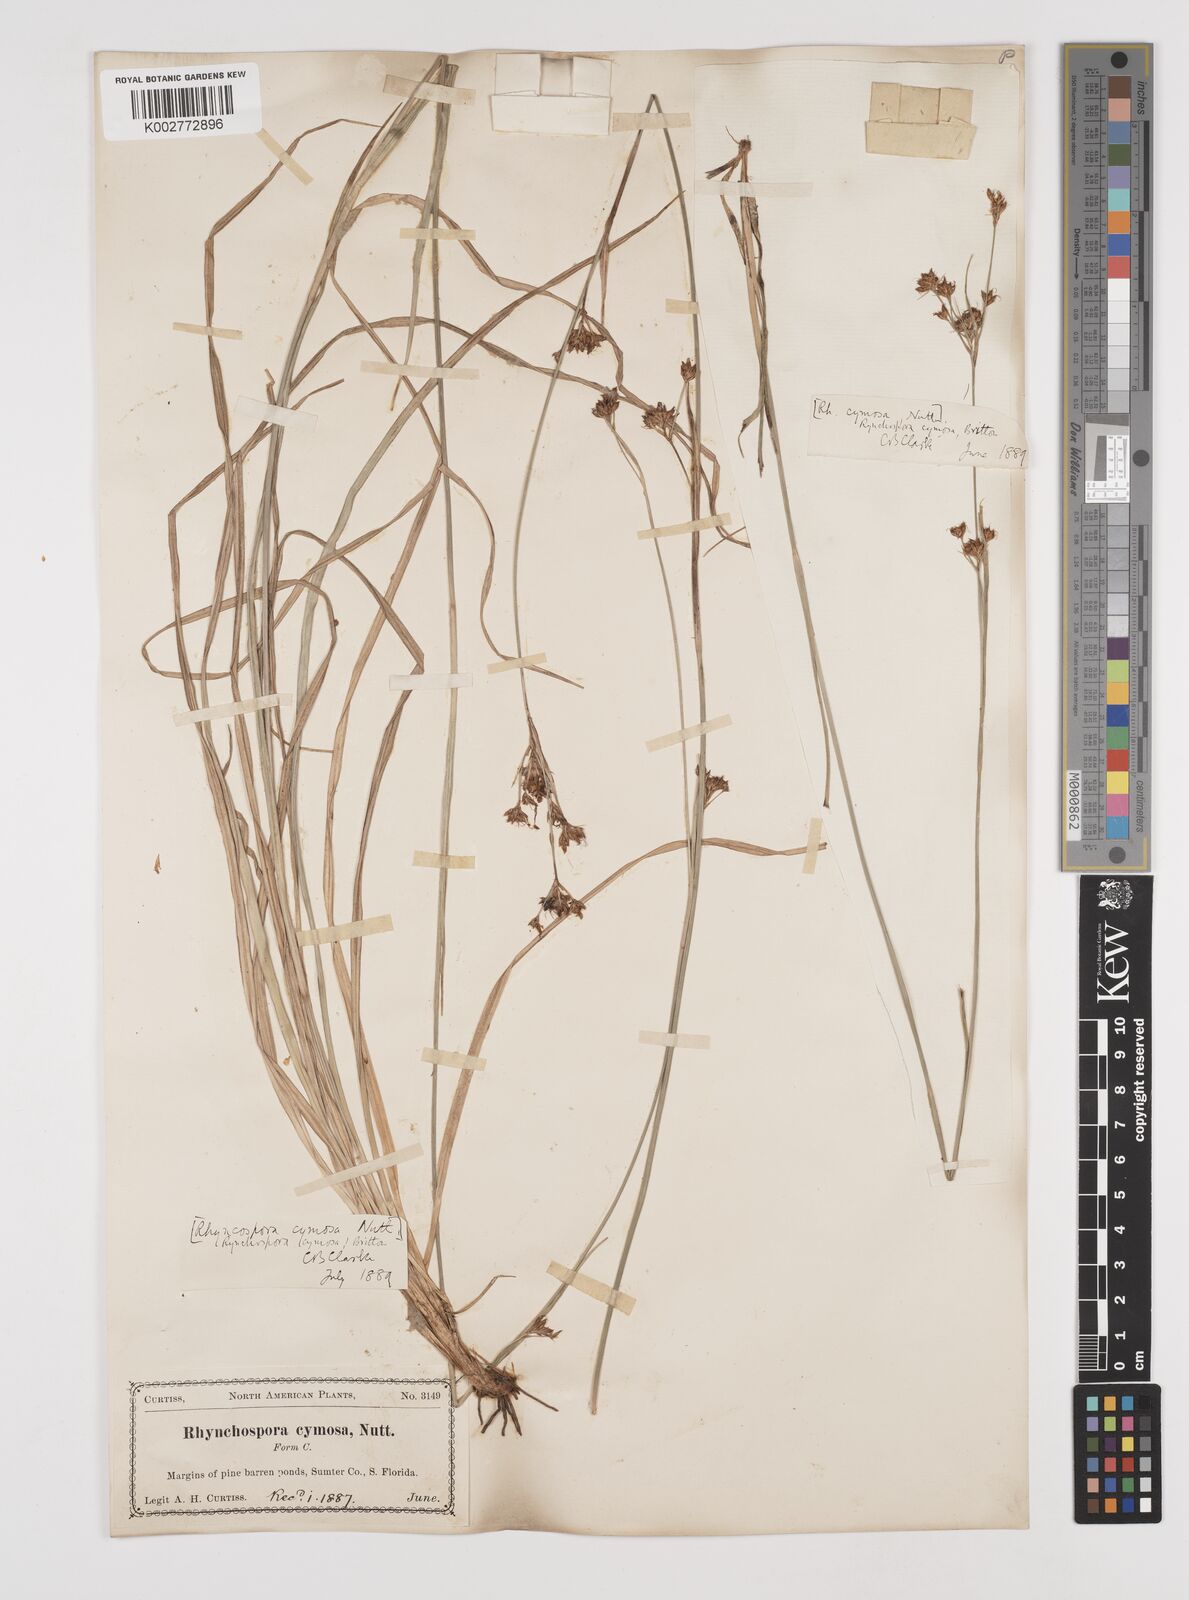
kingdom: Plantae
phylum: Tracheophyta
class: Liliopsida
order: Poales
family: Cyperaceae
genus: Scirpus
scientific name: Scirpus polyphyllus
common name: Leafy bulrush
